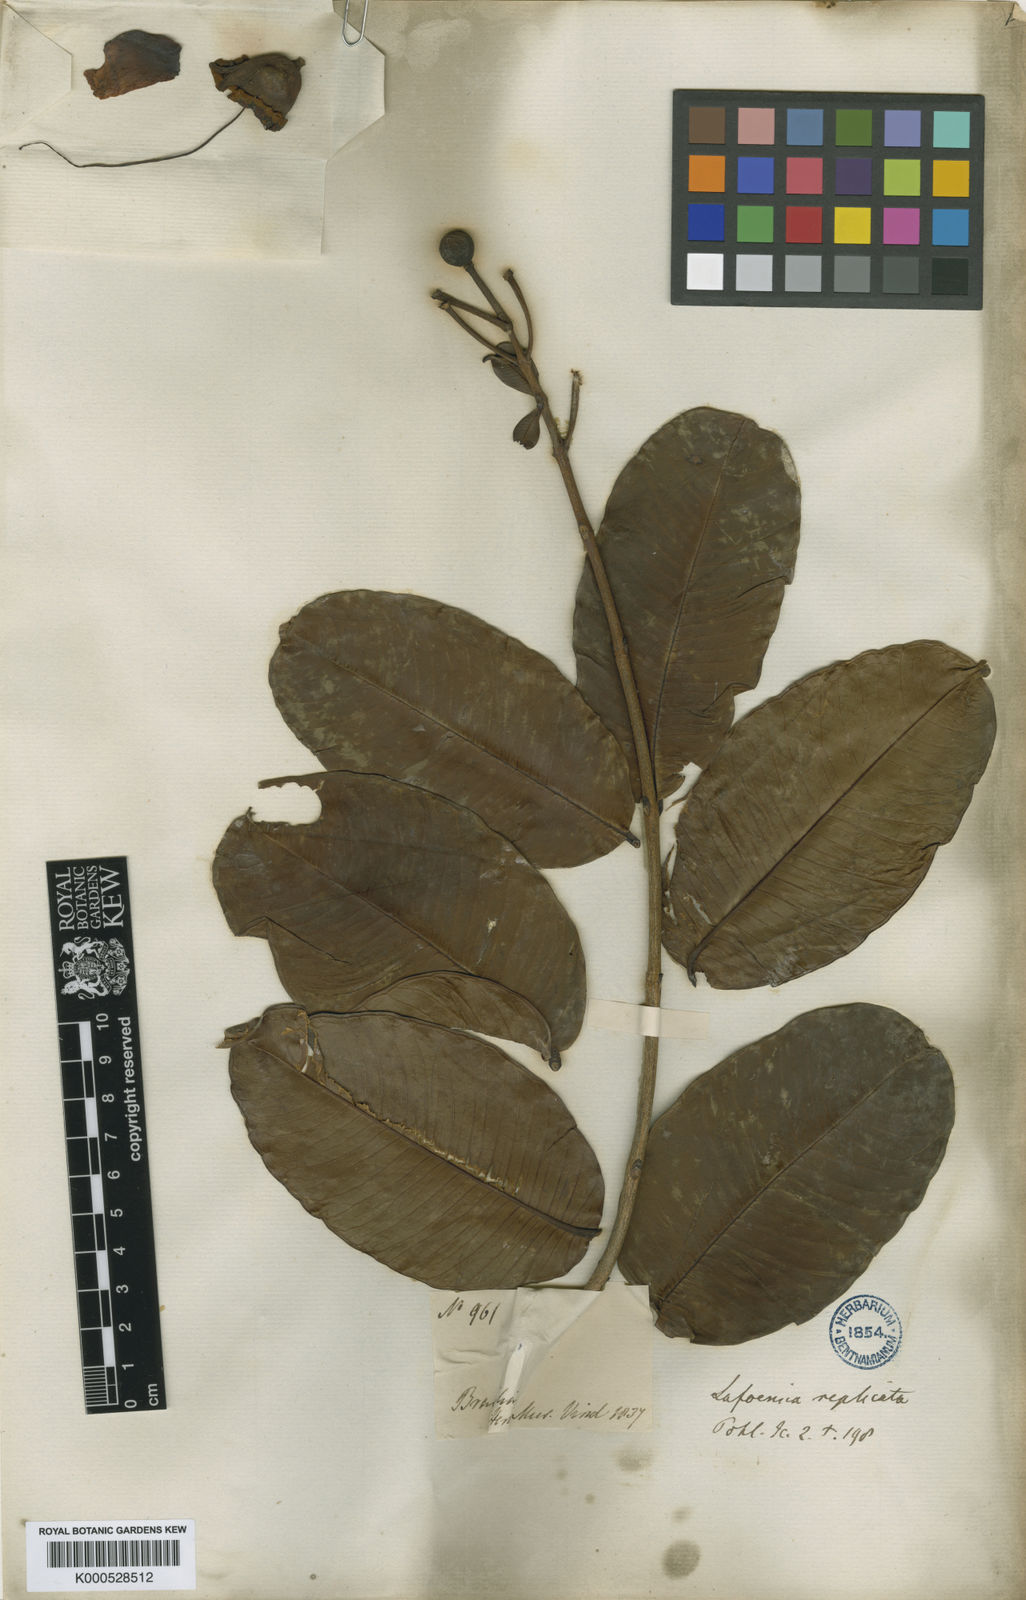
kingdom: Plantae
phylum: Tracheophyta
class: Magnoliopsida
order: Myrtales
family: Lythraceae
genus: Lafoensia
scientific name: Lafoensia vandelliana
